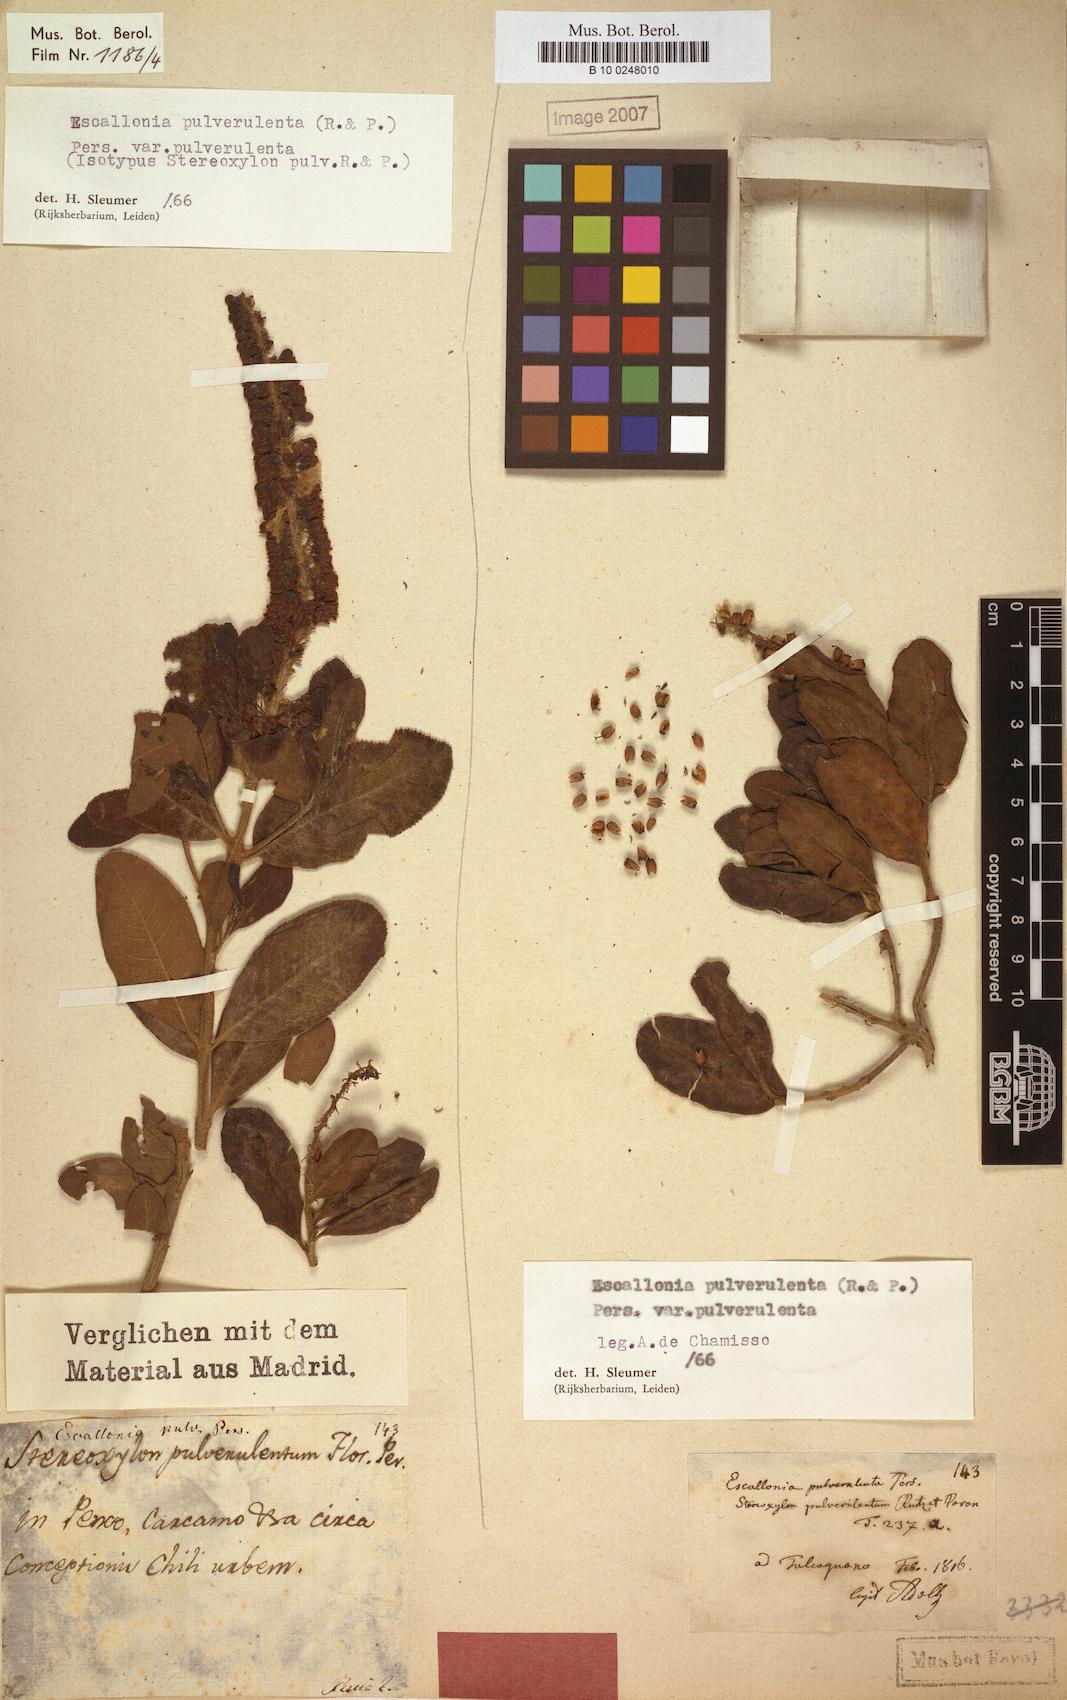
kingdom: Plantae
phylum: Tracheophyta
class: Magnoliopsida
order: Escalloniales
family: Escalloniaceae
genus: Escallonia
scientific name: Escallonia pulverulenta
